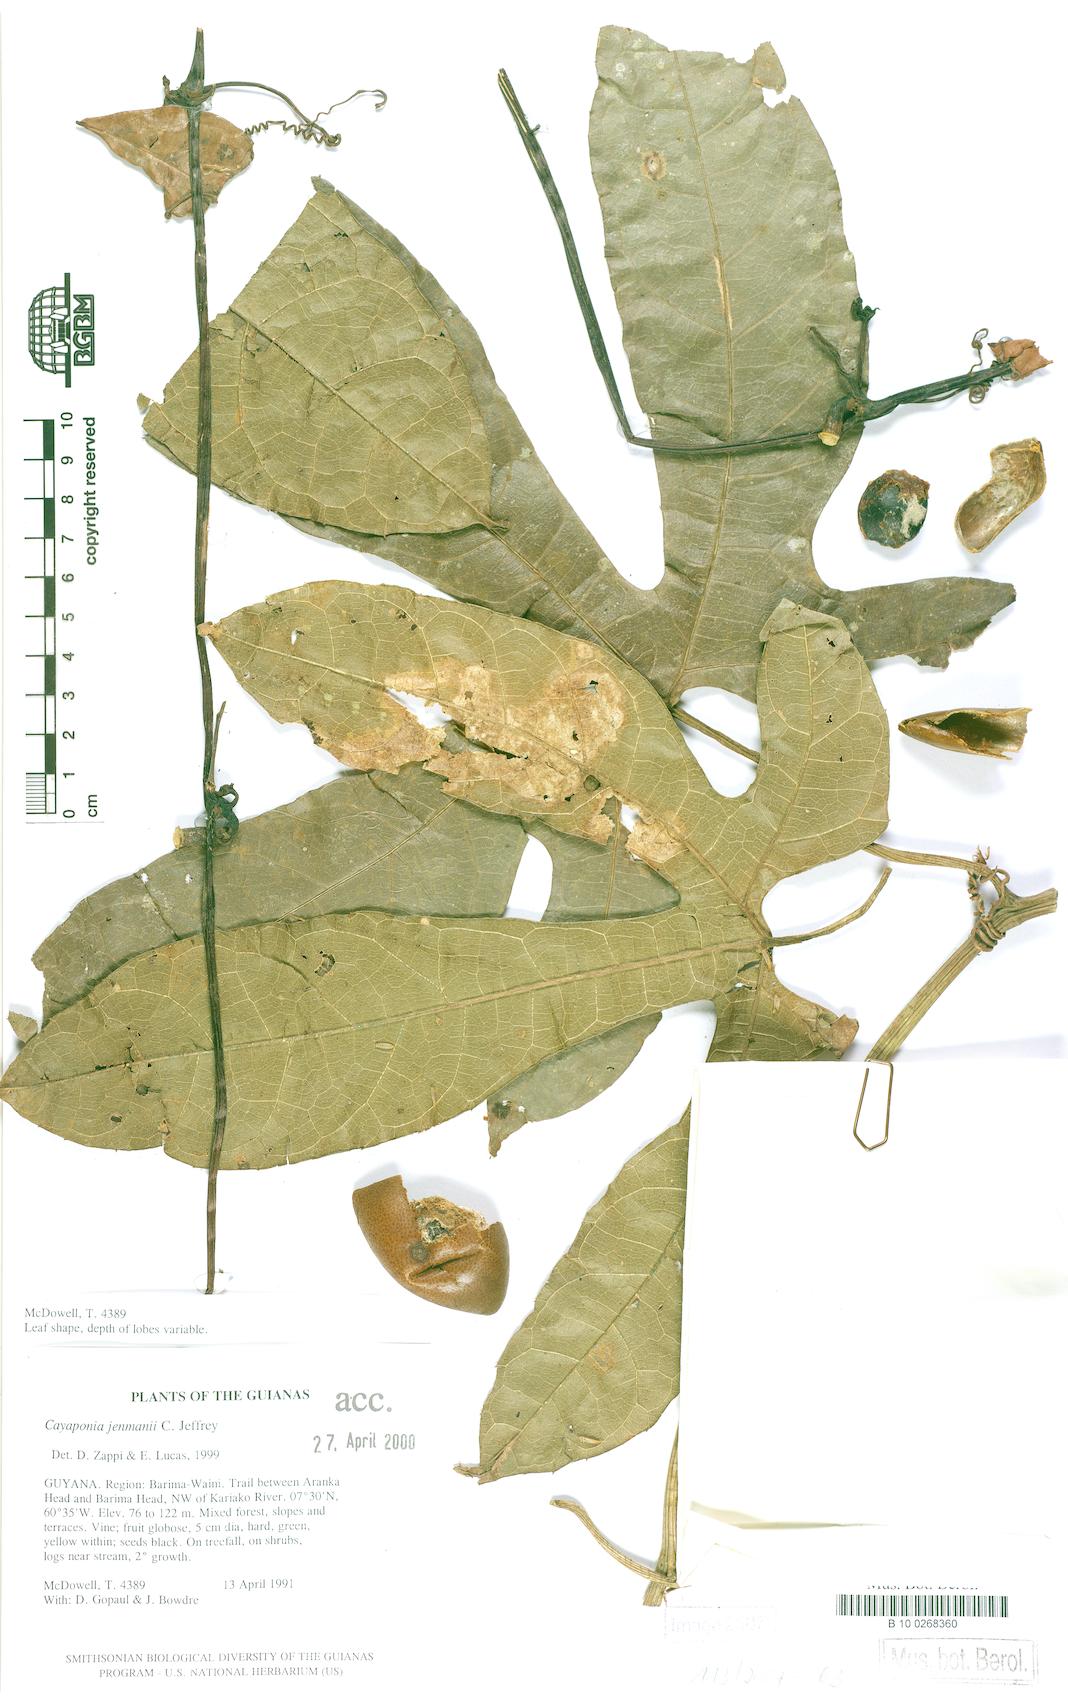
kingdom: Plantae
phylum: Tracheophyta
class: Magnoliopsida
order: Cucurbitales
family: Cucurbitaceae
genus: Cayaponia
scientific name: Cayaponia granatensis
